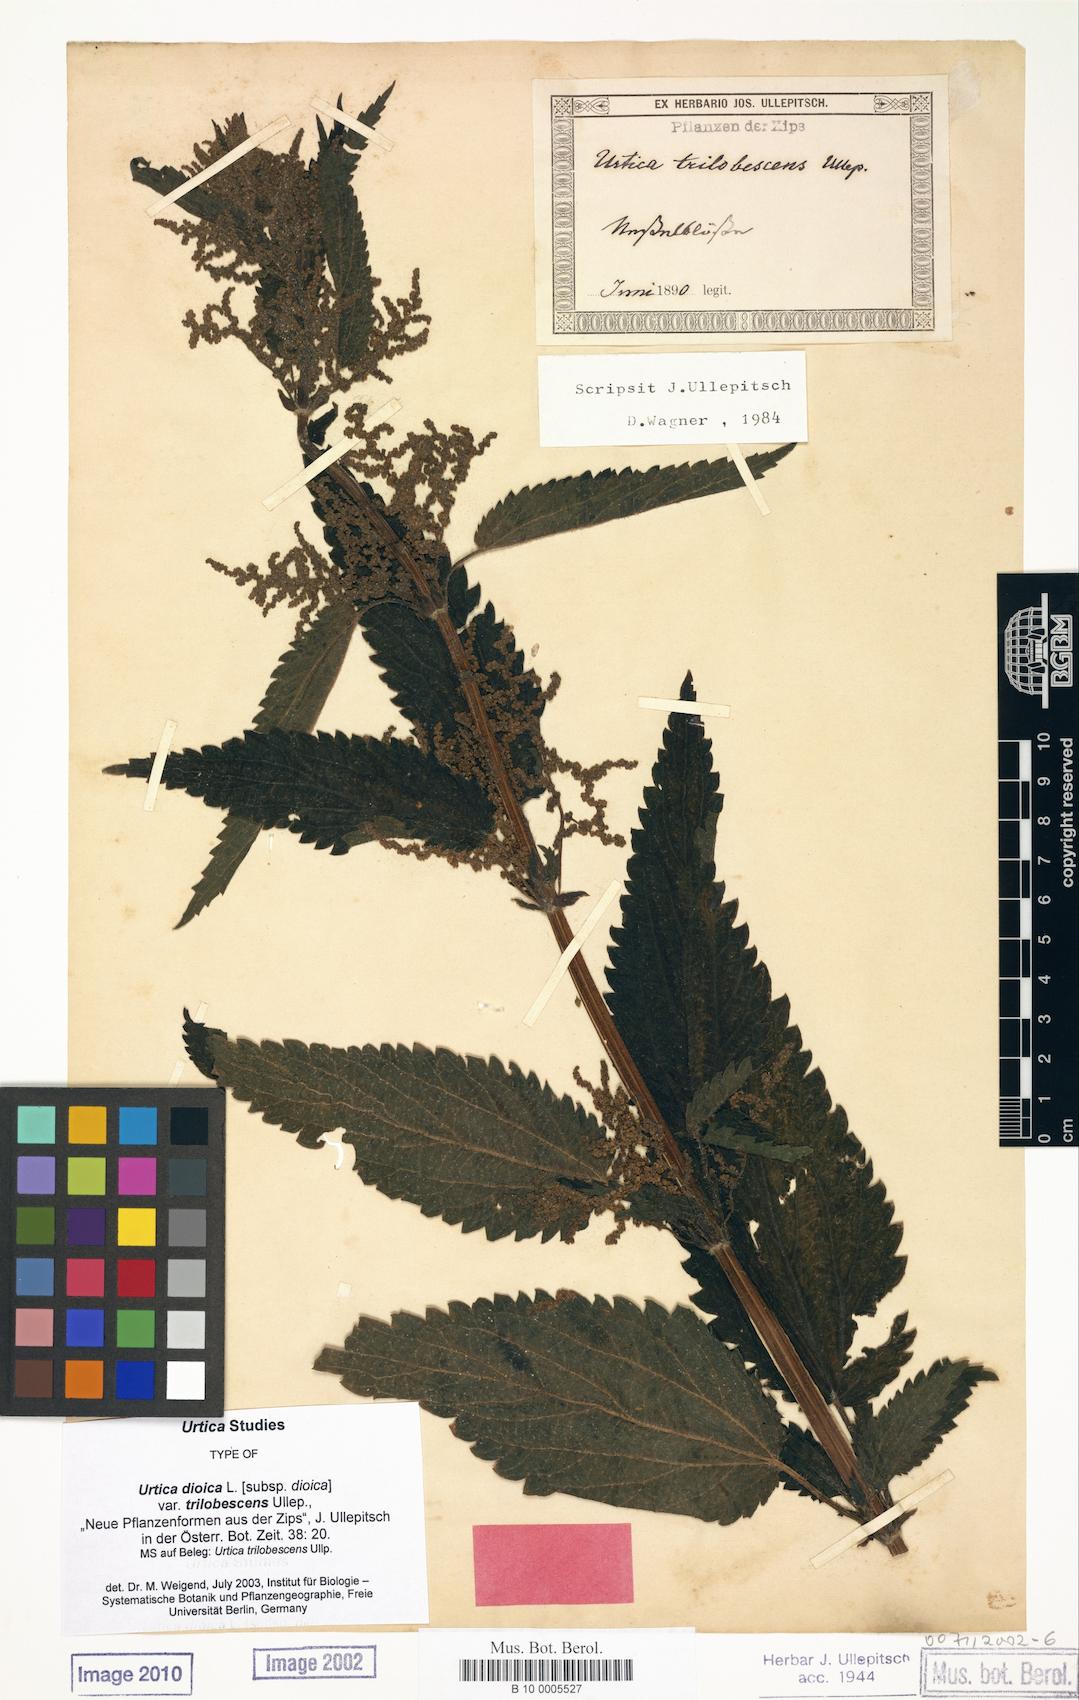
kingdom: Plantae
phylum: Tracheophyta
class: Magnoliopsida
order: Rosales
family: Urticaceae
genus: Urtica
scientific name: Urtica dioica
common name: Common nettle
